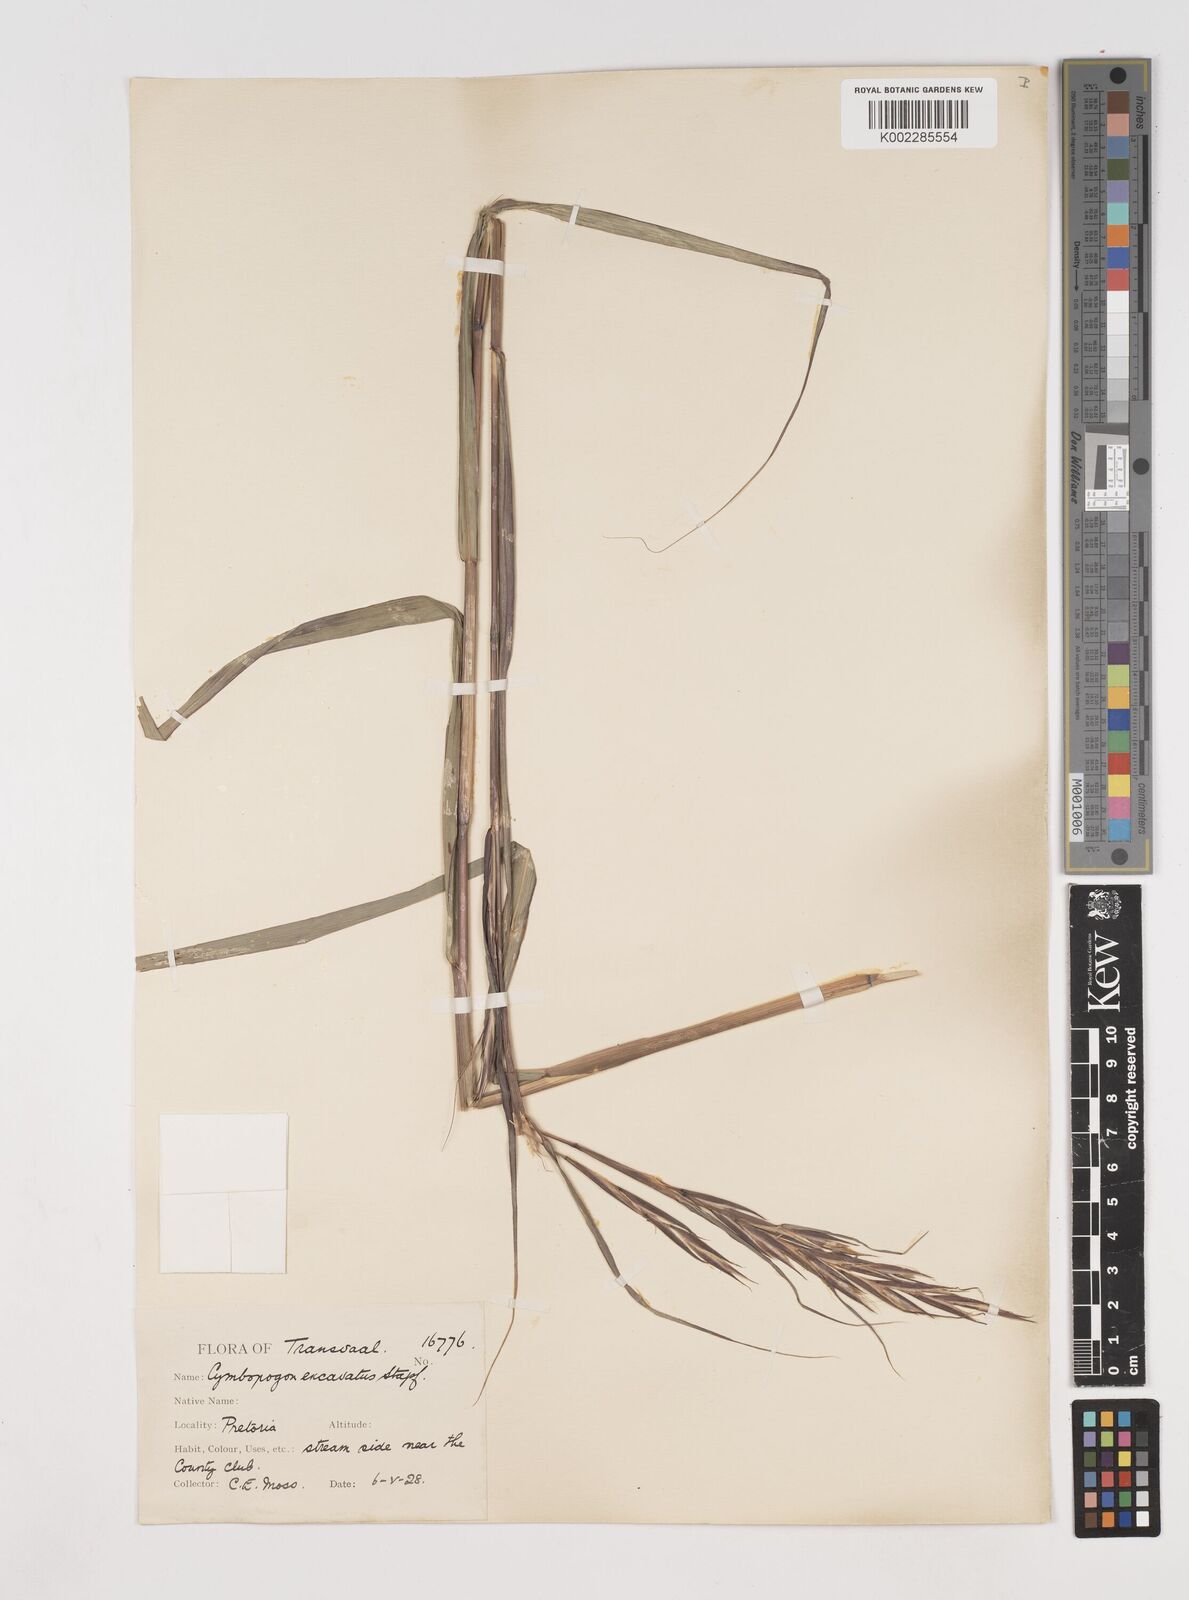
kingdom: Plantae
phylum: Tracheophyta
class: Liliopsida
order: Poales
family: Poaceae
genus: Cymbopogon
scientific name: Cymbopogon caesius
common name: Kachi grass
